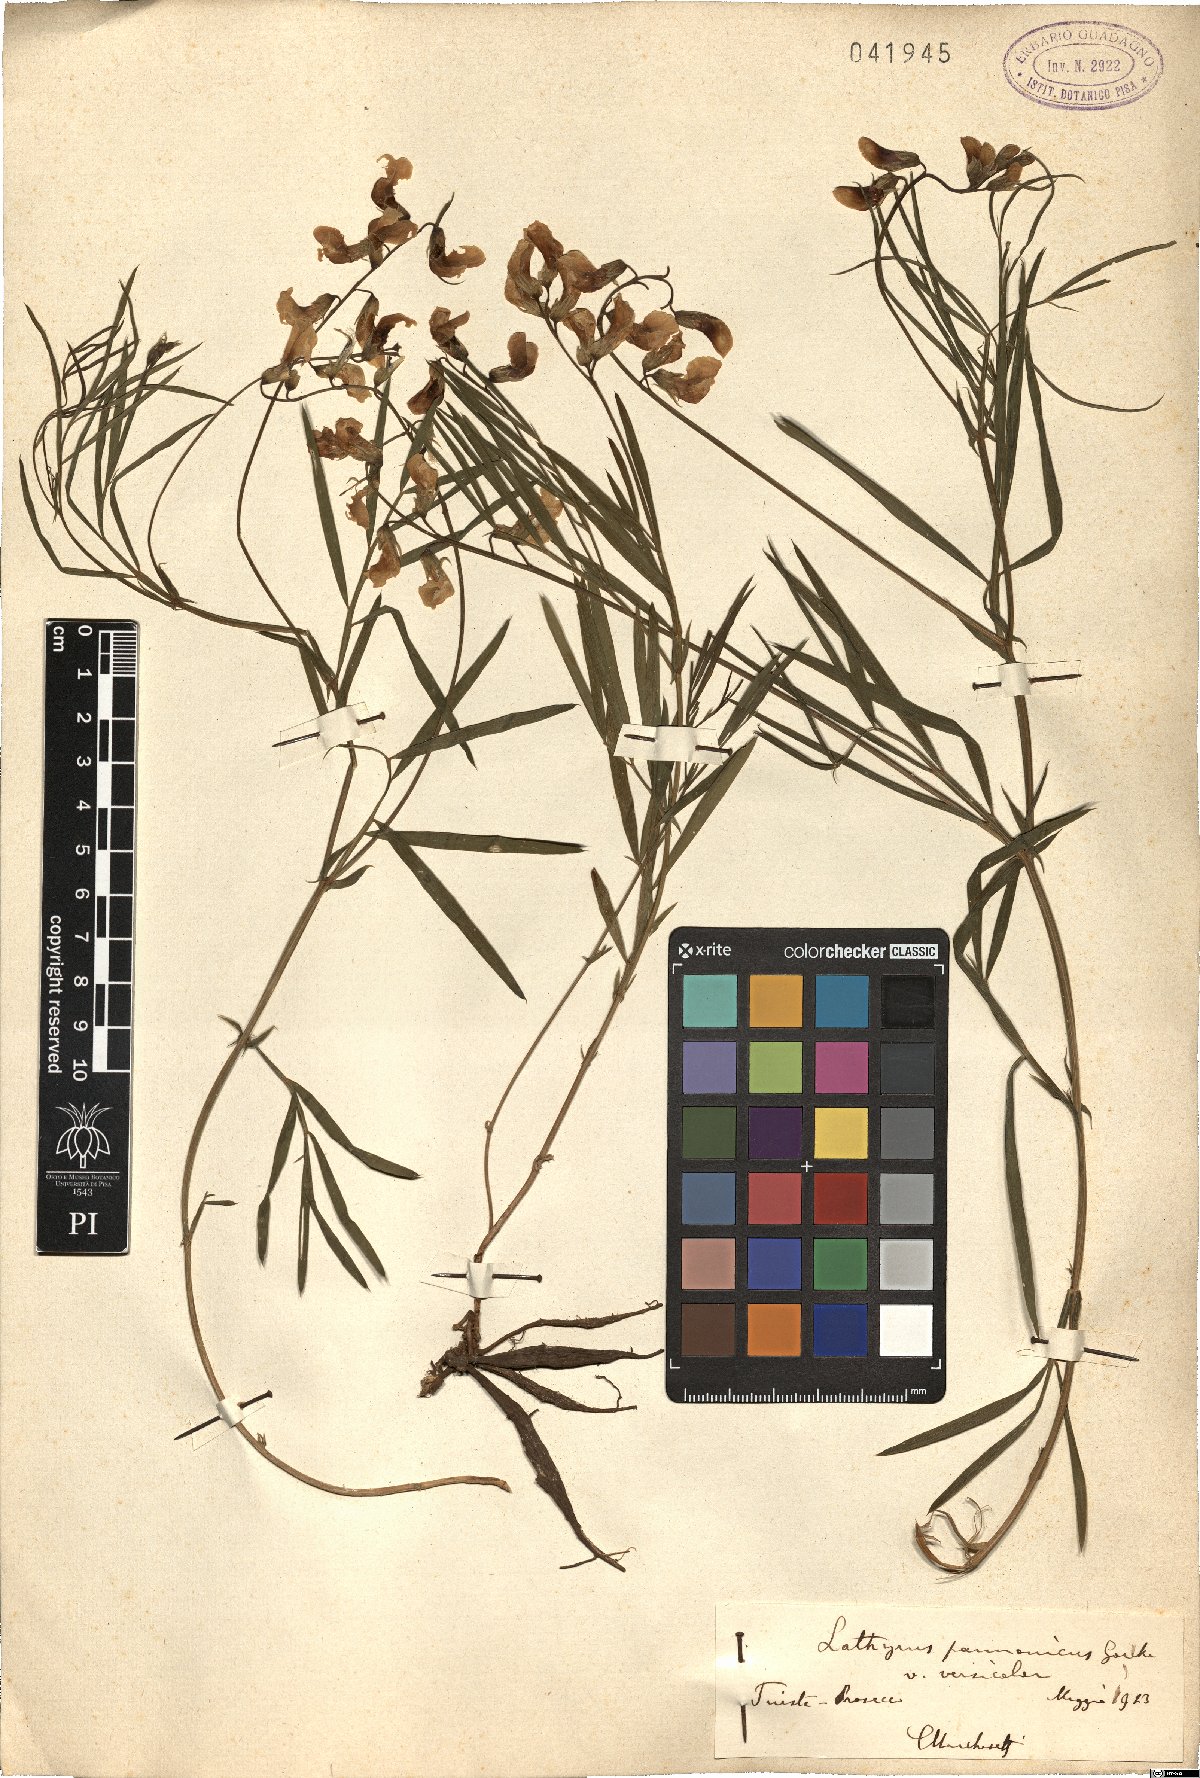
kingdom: Plantae
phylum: Tracheophyta
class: Magnoliopsida
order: Fabales
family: Fabaceae
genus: Lathyrus
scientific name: Lathyrus pannonicus
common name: Pea
